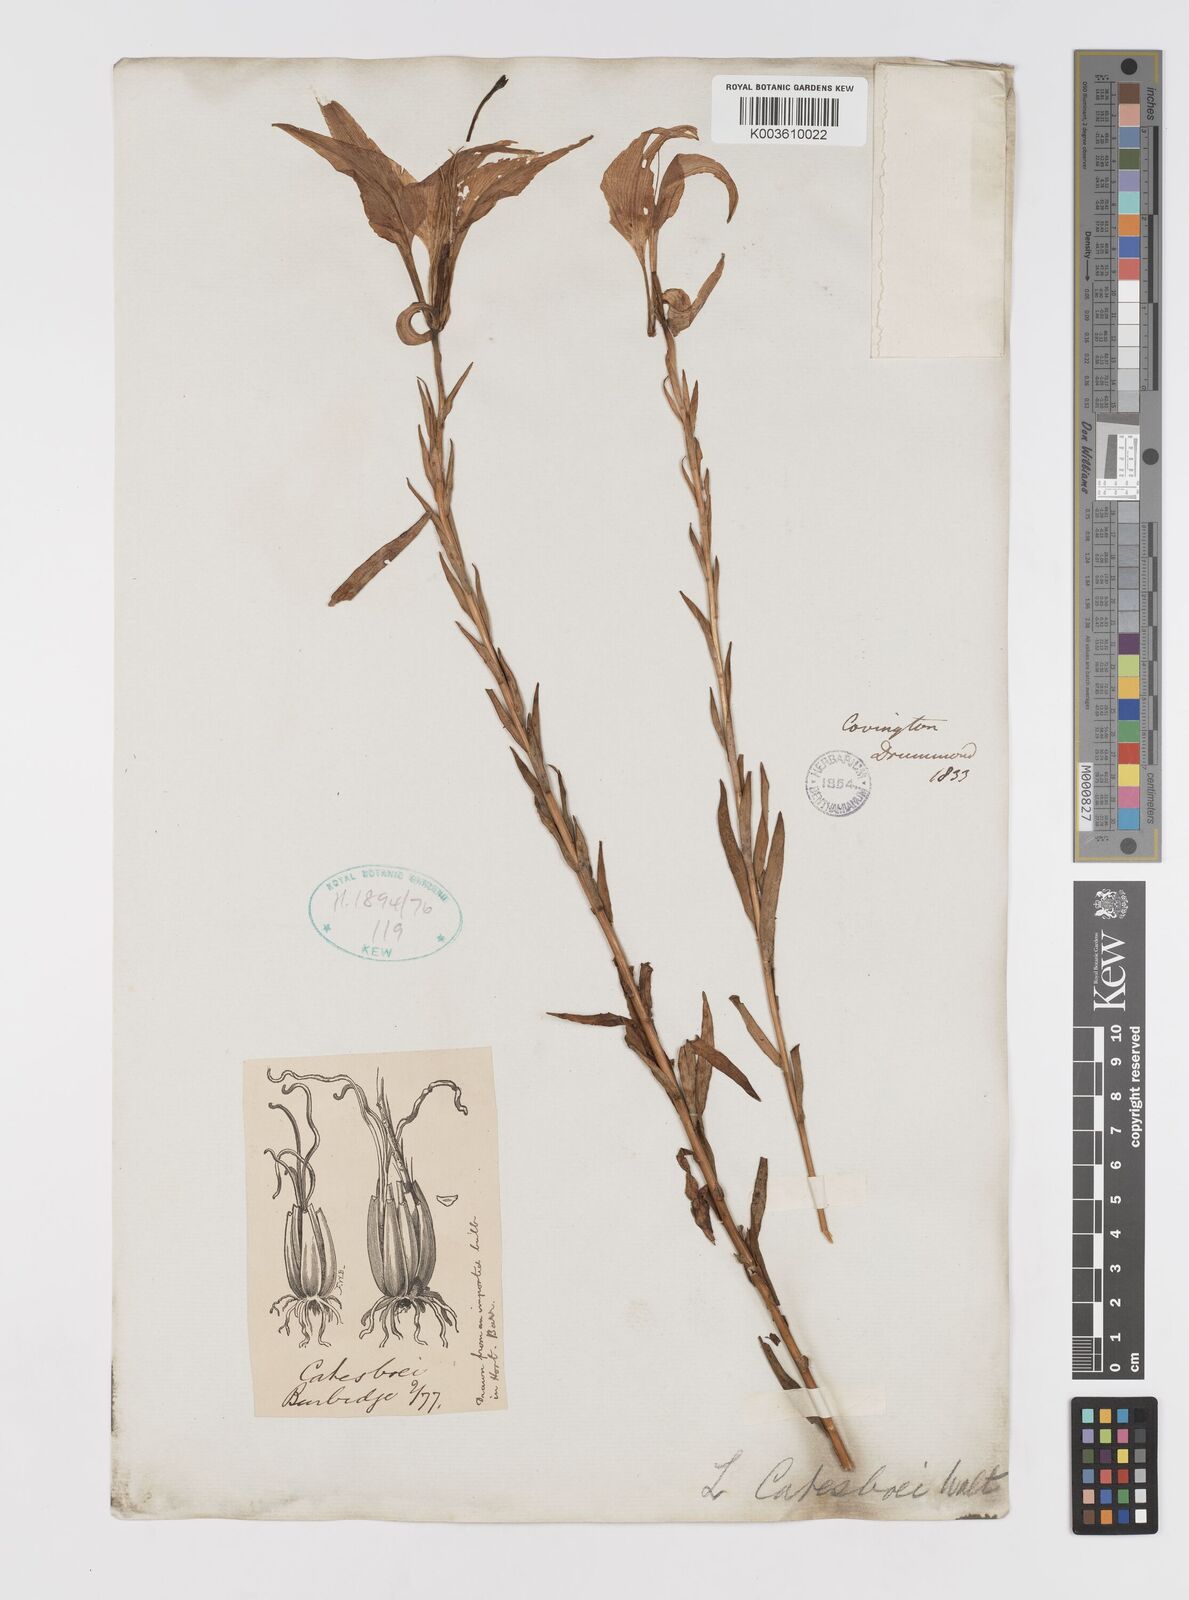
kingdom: Plantae
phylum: Tracheophyta
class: Liliopsida
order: Liliales
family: Liliaceae
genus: Lilium
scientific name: Lilium catesbaei
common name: Catesby's lily
